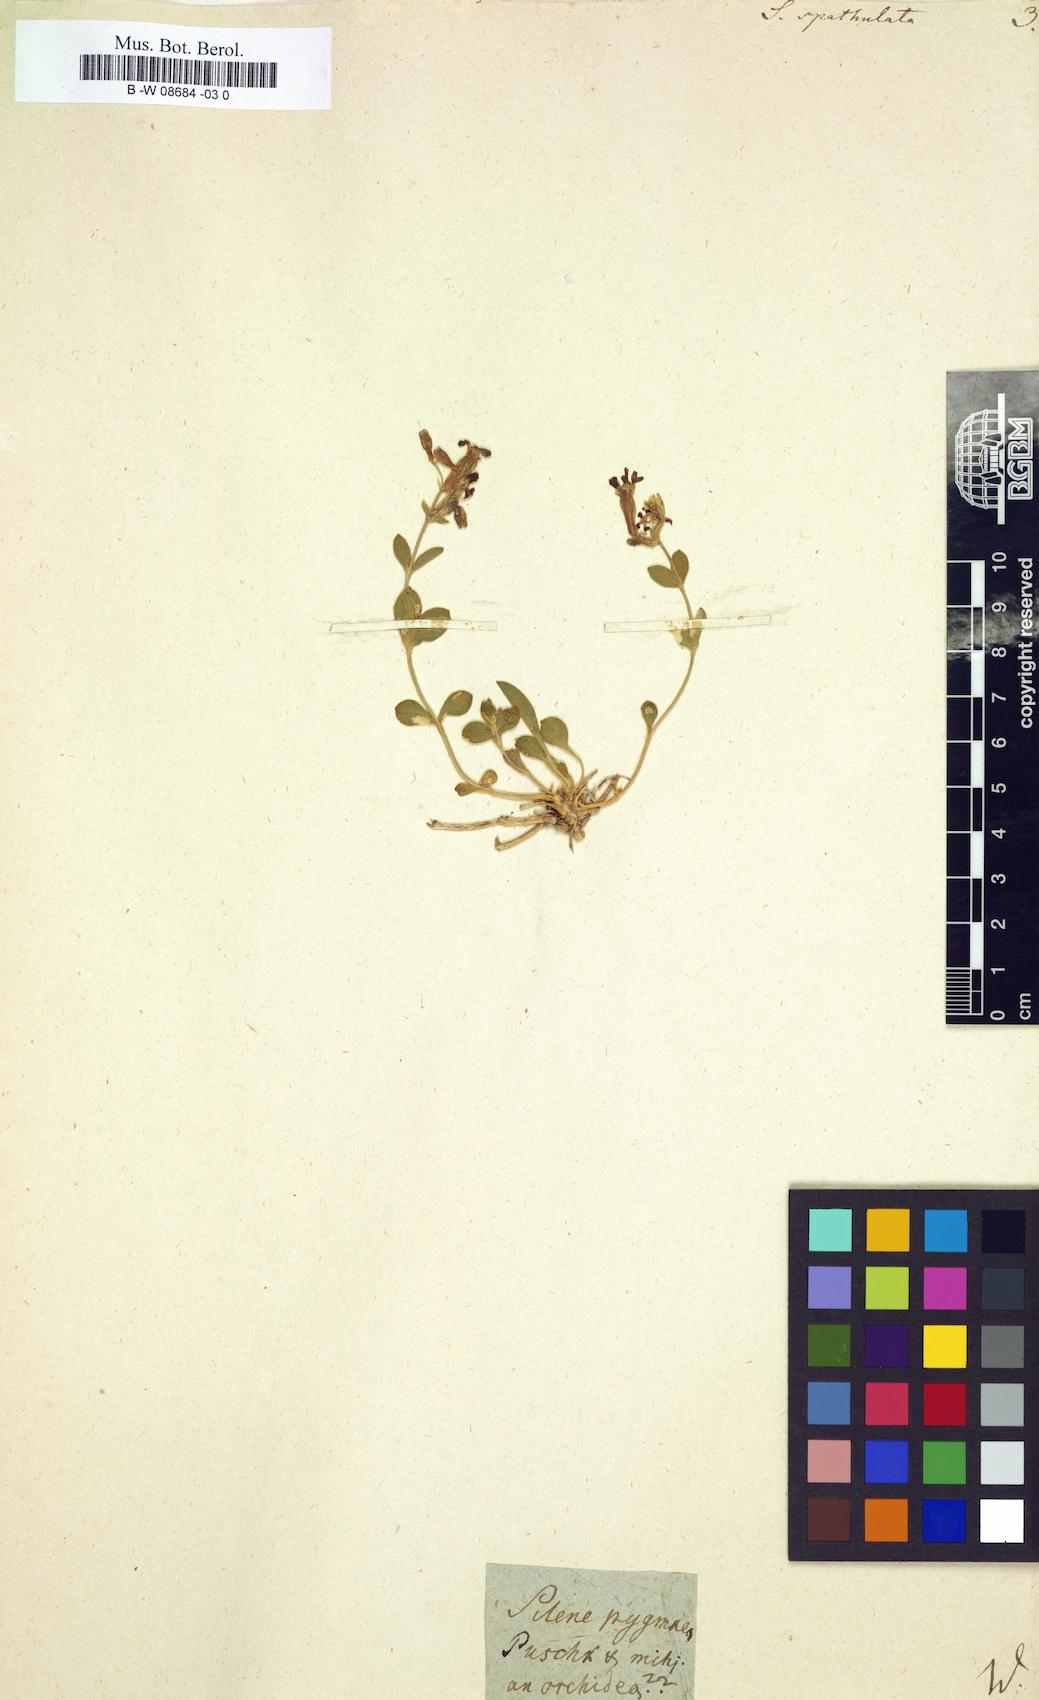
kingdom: Plantae
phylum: Tracheophyta
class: Magnoliopsida
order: Caryophyllales
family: Caryophyllaceae
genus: Silene
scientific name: Silene
